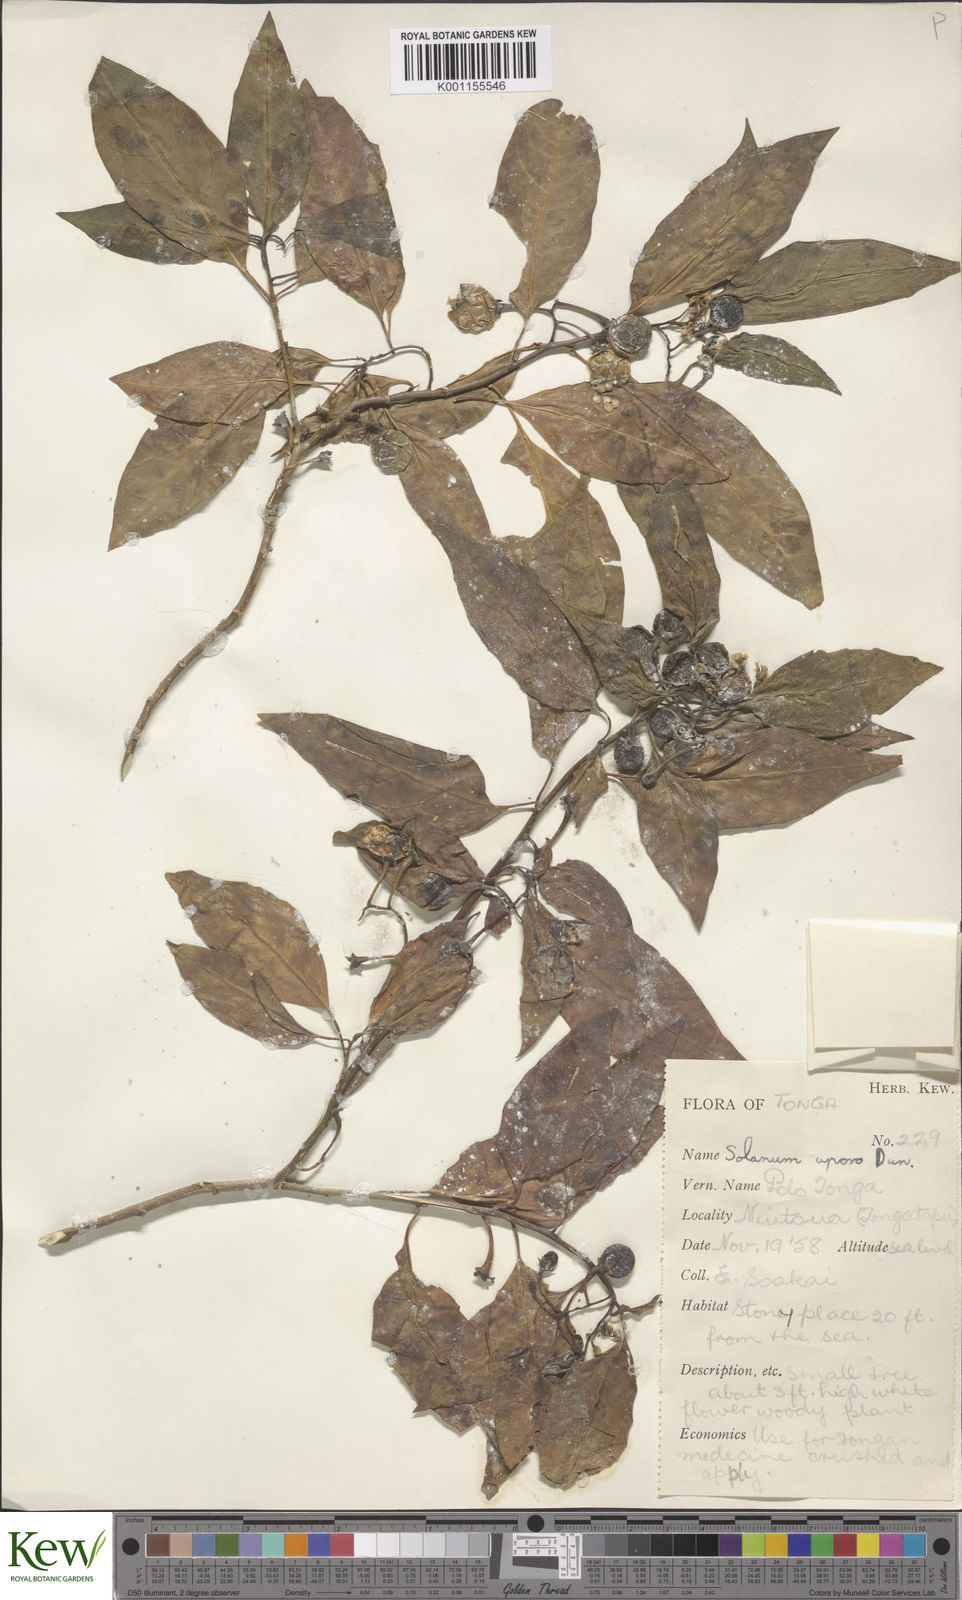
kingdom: Plantae
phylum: Tracheophyta
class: Magnoliopsida
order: Solanales
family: Solanaceae
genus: Solanum
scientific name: Solanum
